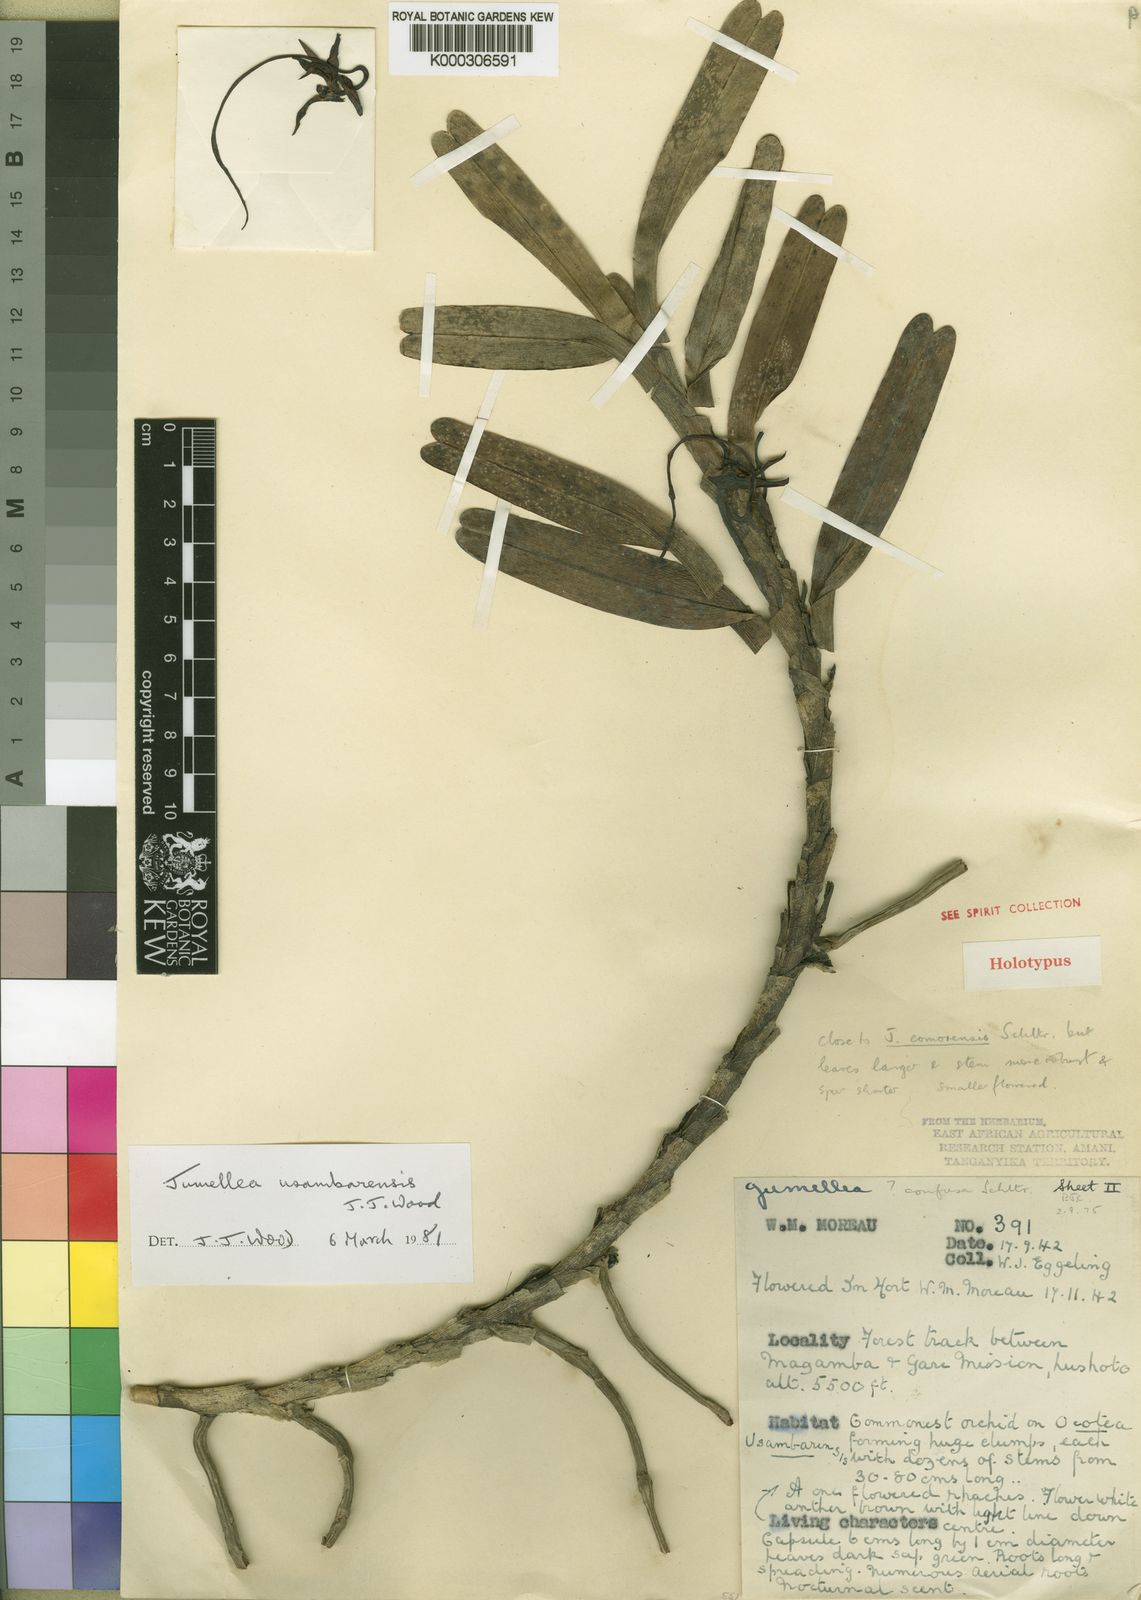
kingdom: Plantae
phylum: Tracheophyta
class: Liliopsida
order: Asparagales
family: Orchidaceae
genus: Jumellea
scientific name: Jumellea usambarensis
